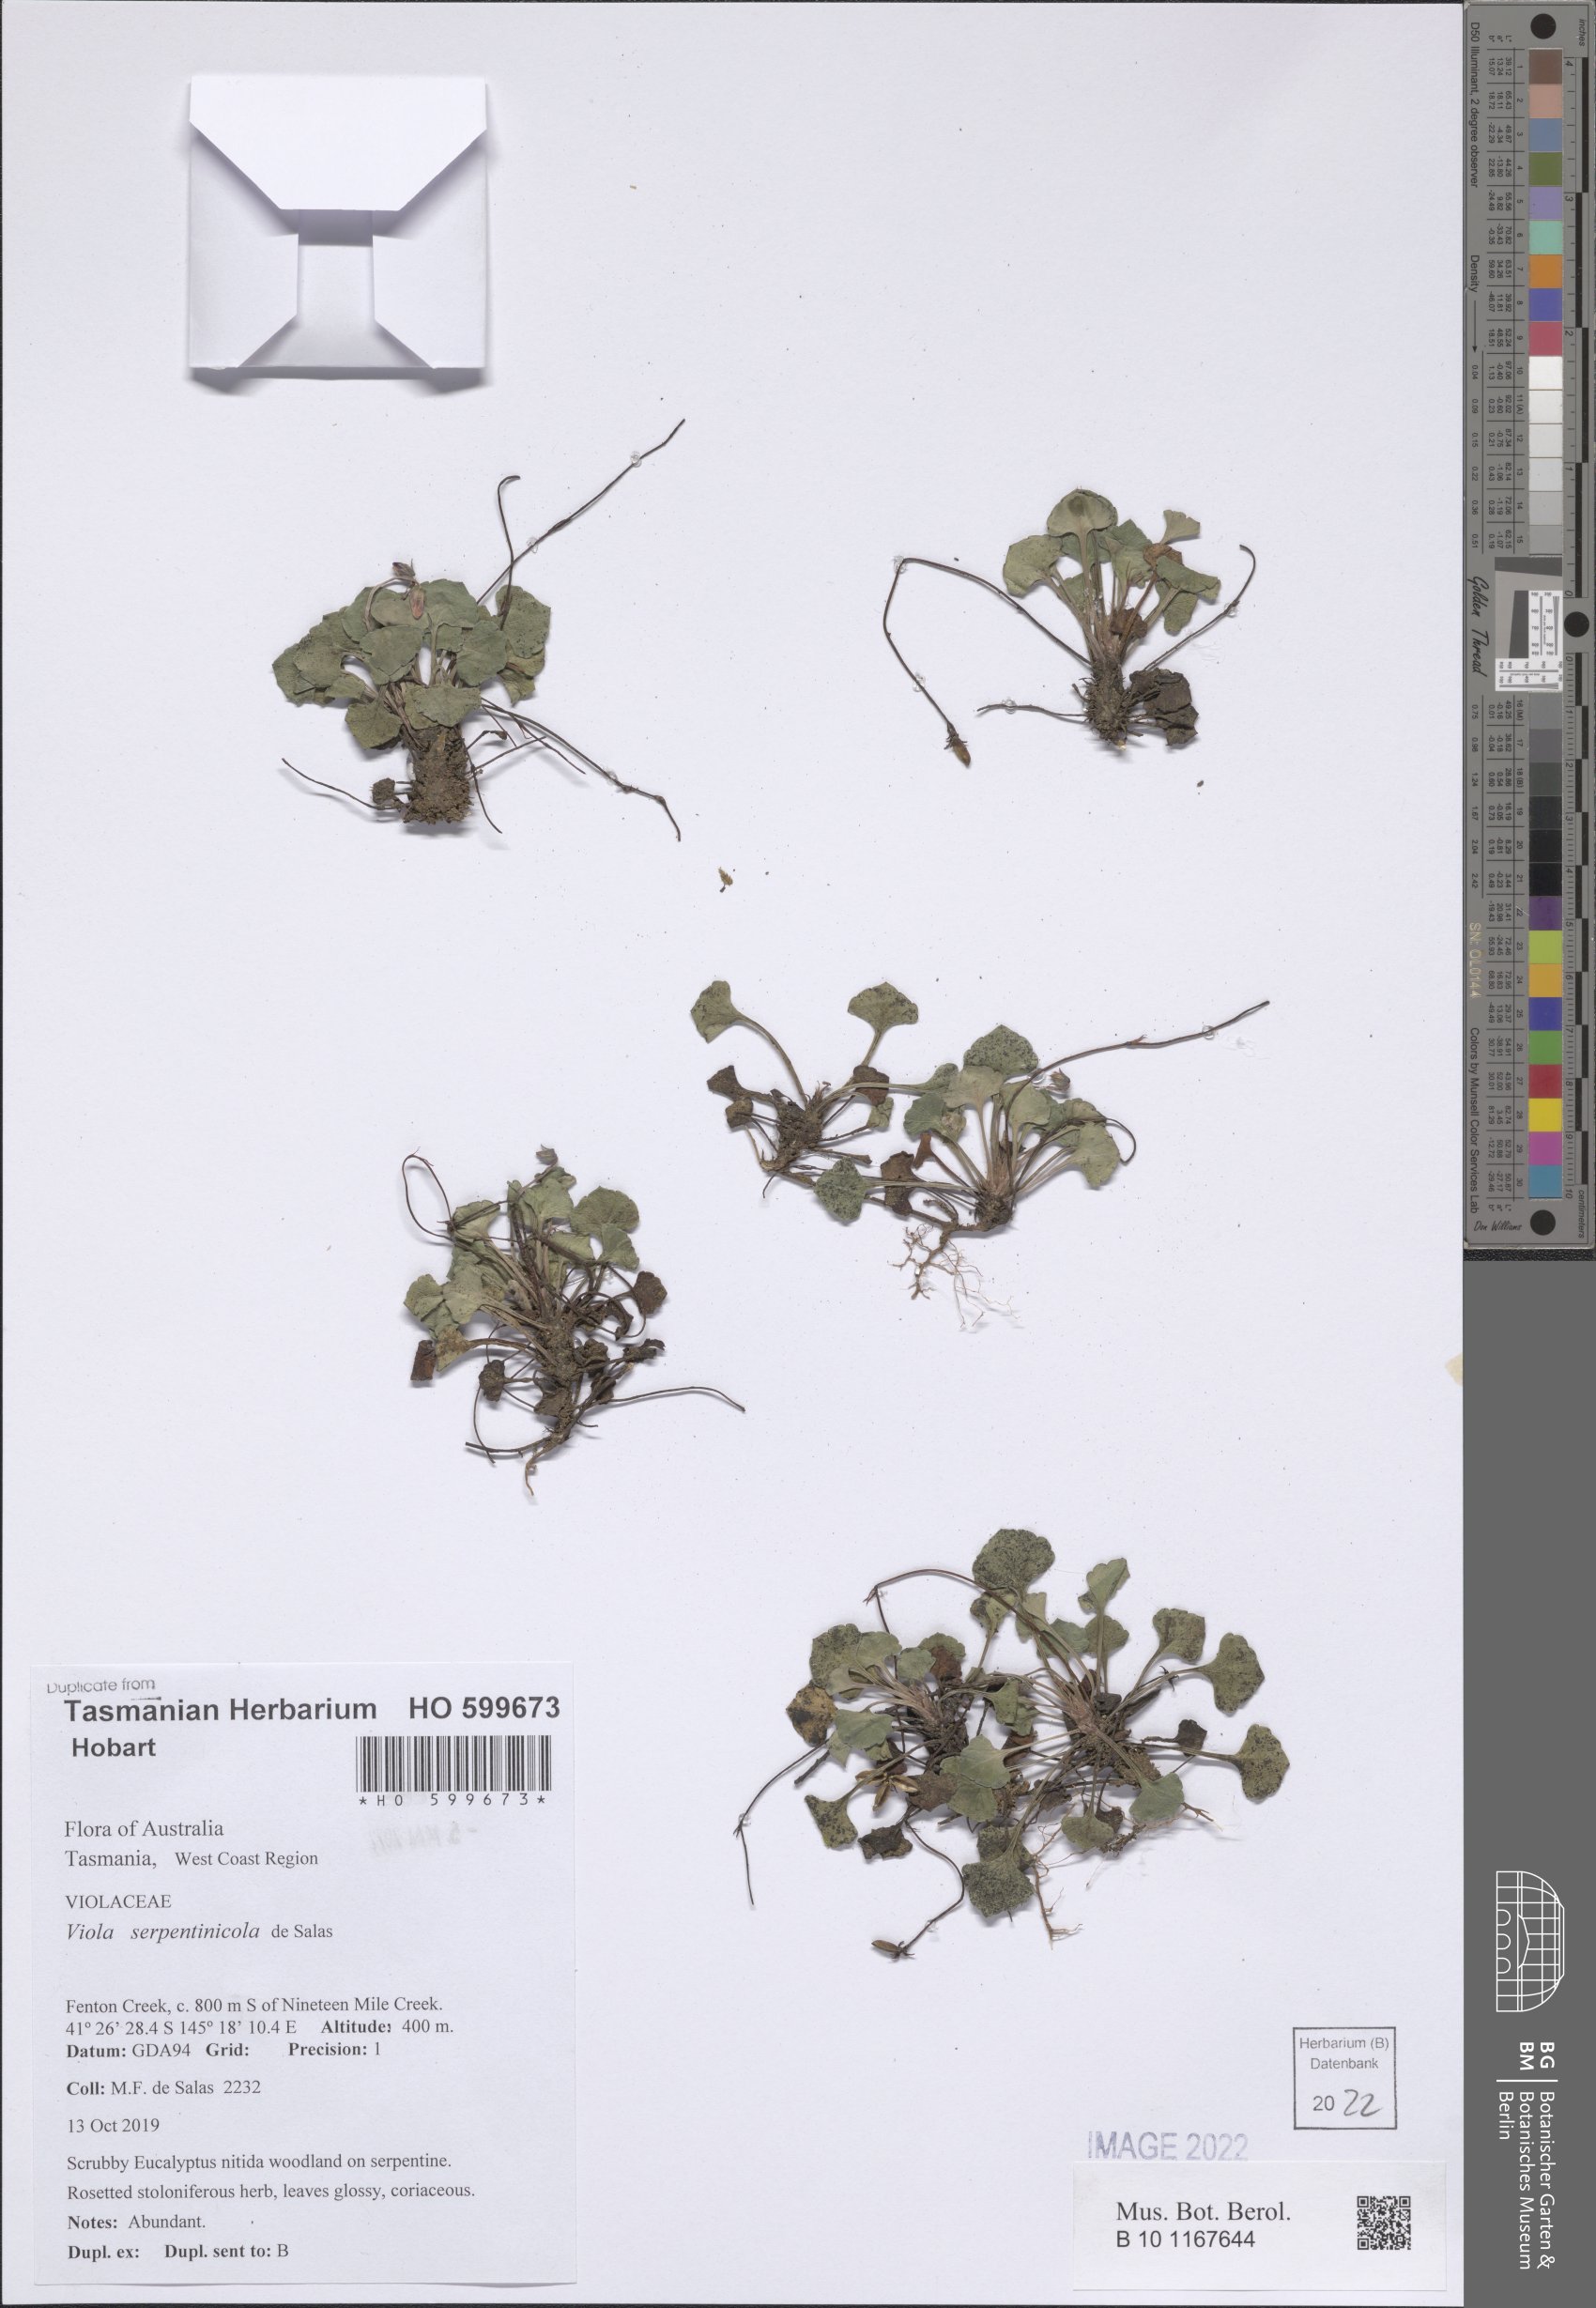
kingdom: Plantae
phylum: Tracheophyta
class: Magnoliopsida
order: Malpighiales
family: Violaceae
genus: Viola
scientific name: Viola serpentinicola
